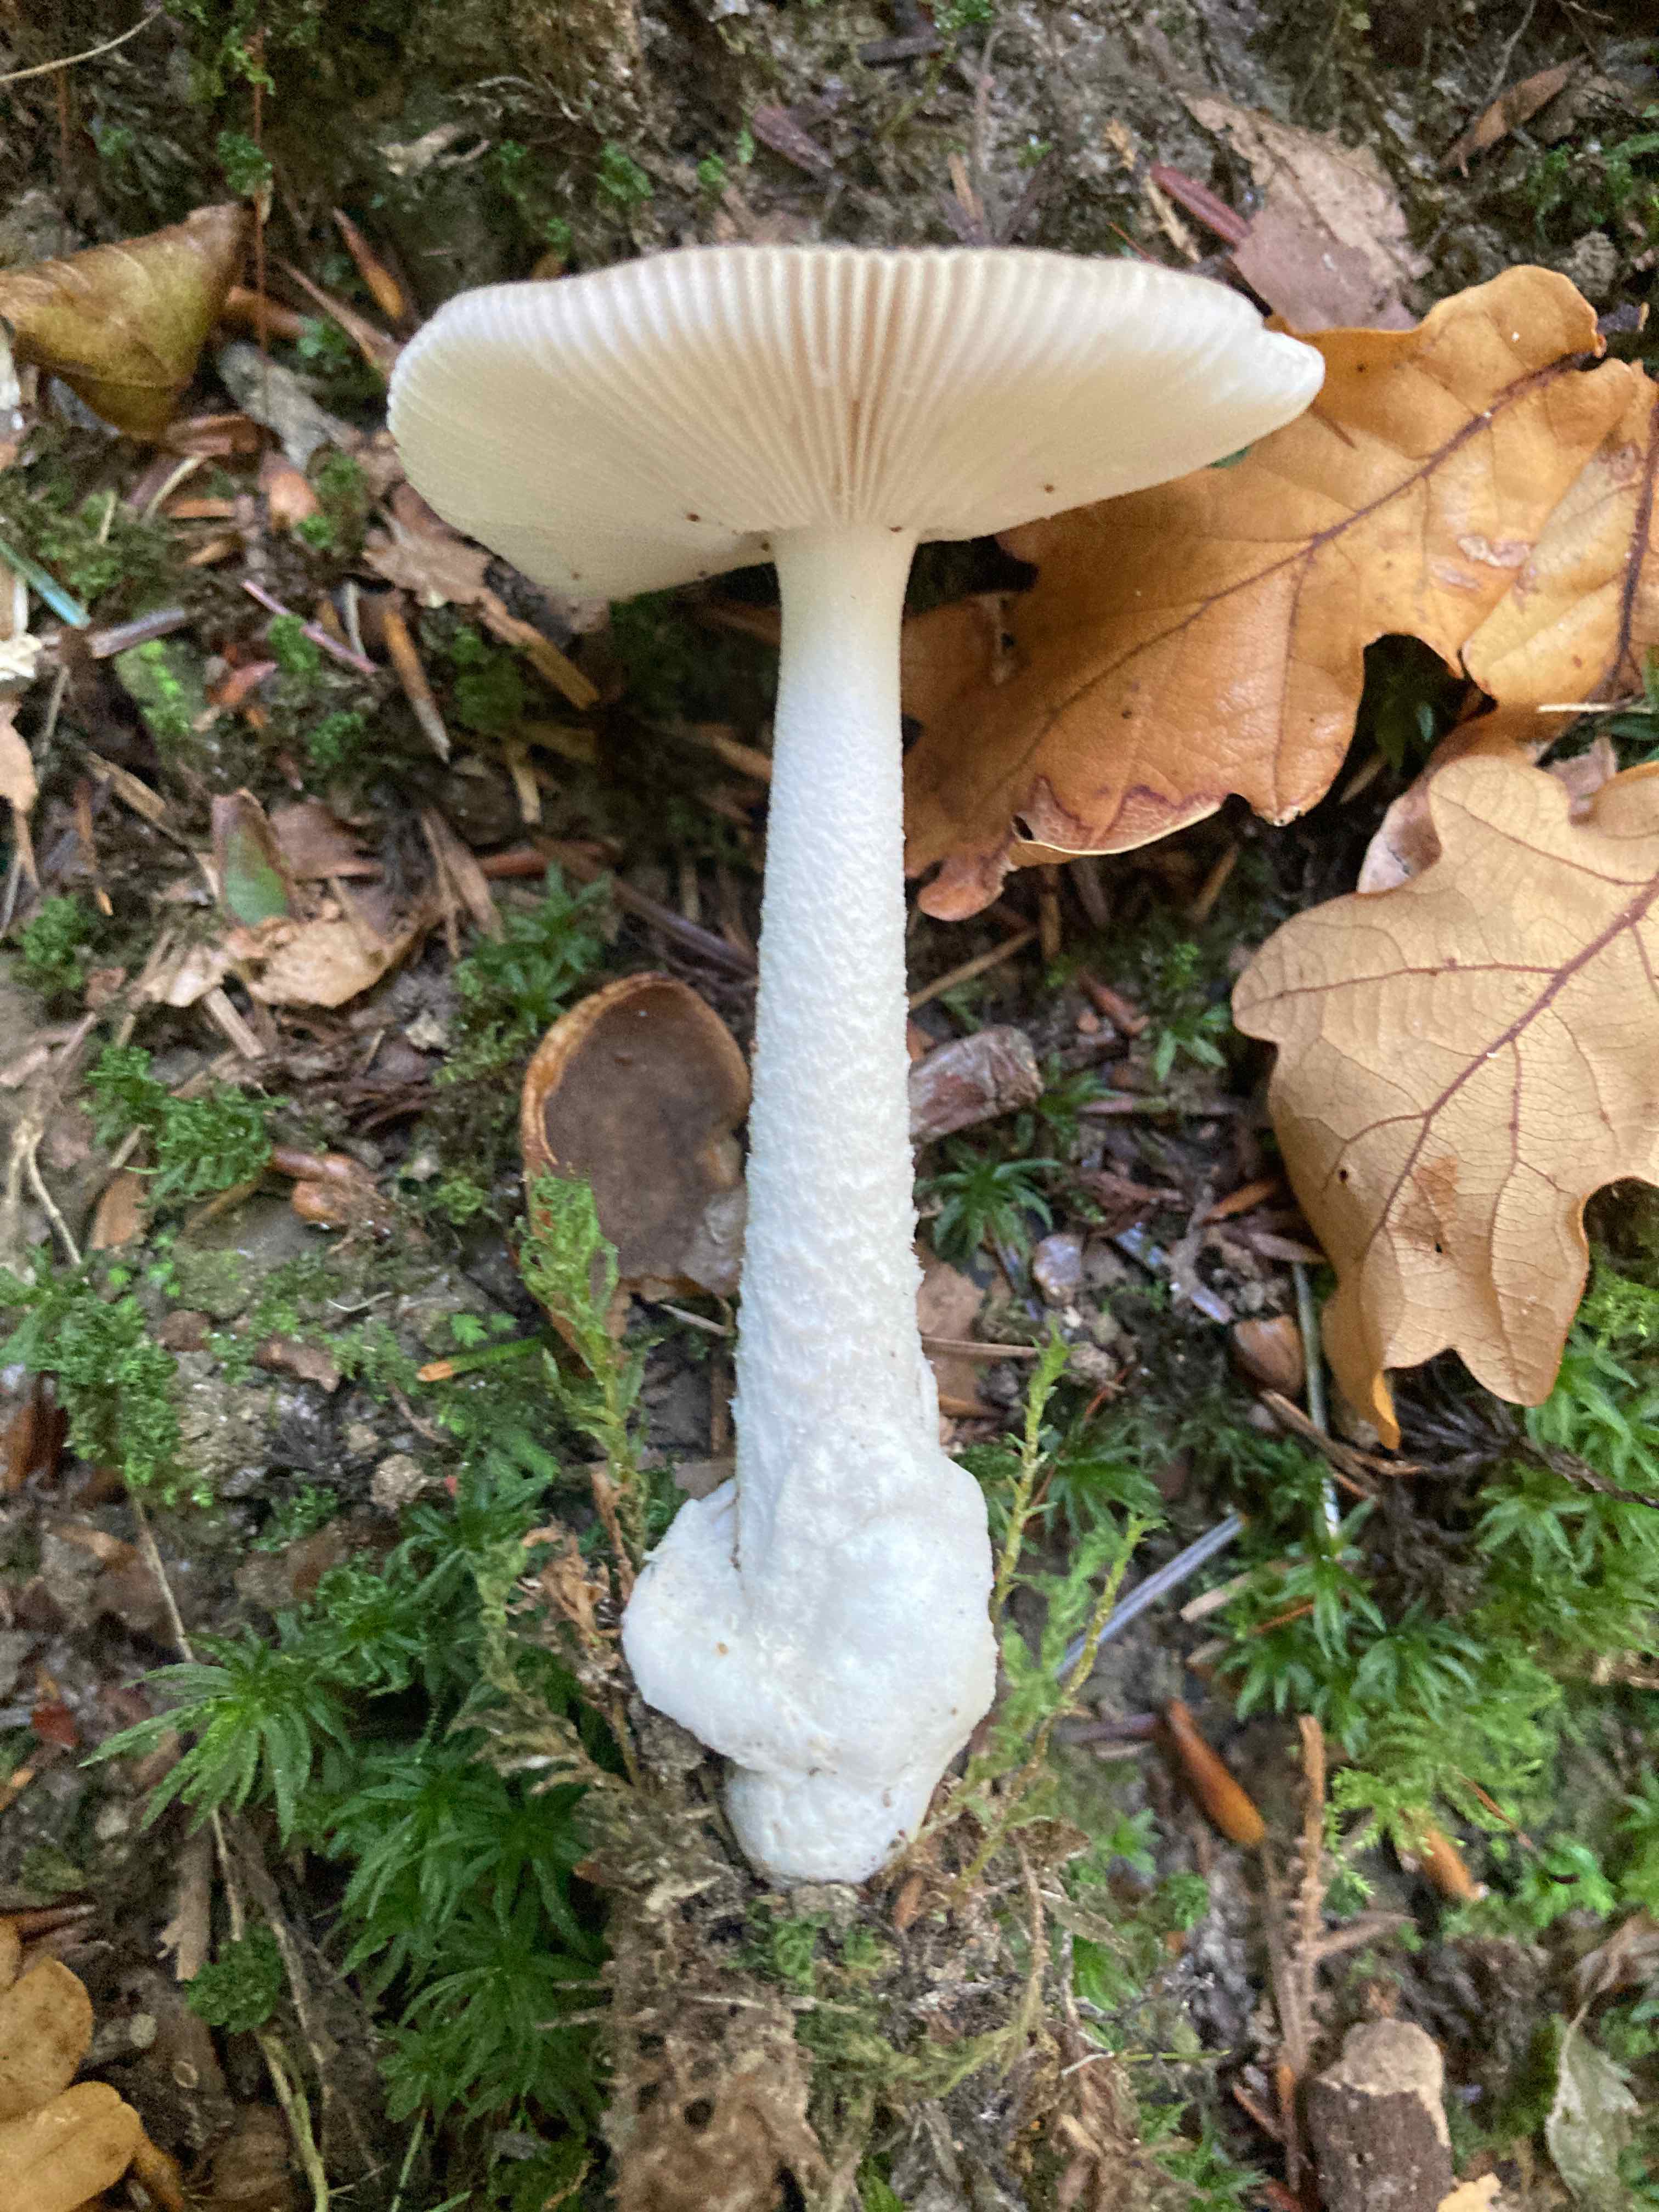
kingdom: Fungi
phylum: Basidiomycota
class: Agaricomycetes
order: Agaricales
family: Amanitaceae
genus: Amanita
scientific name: Amanita vaginata
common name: grå kam-fluesvamp
